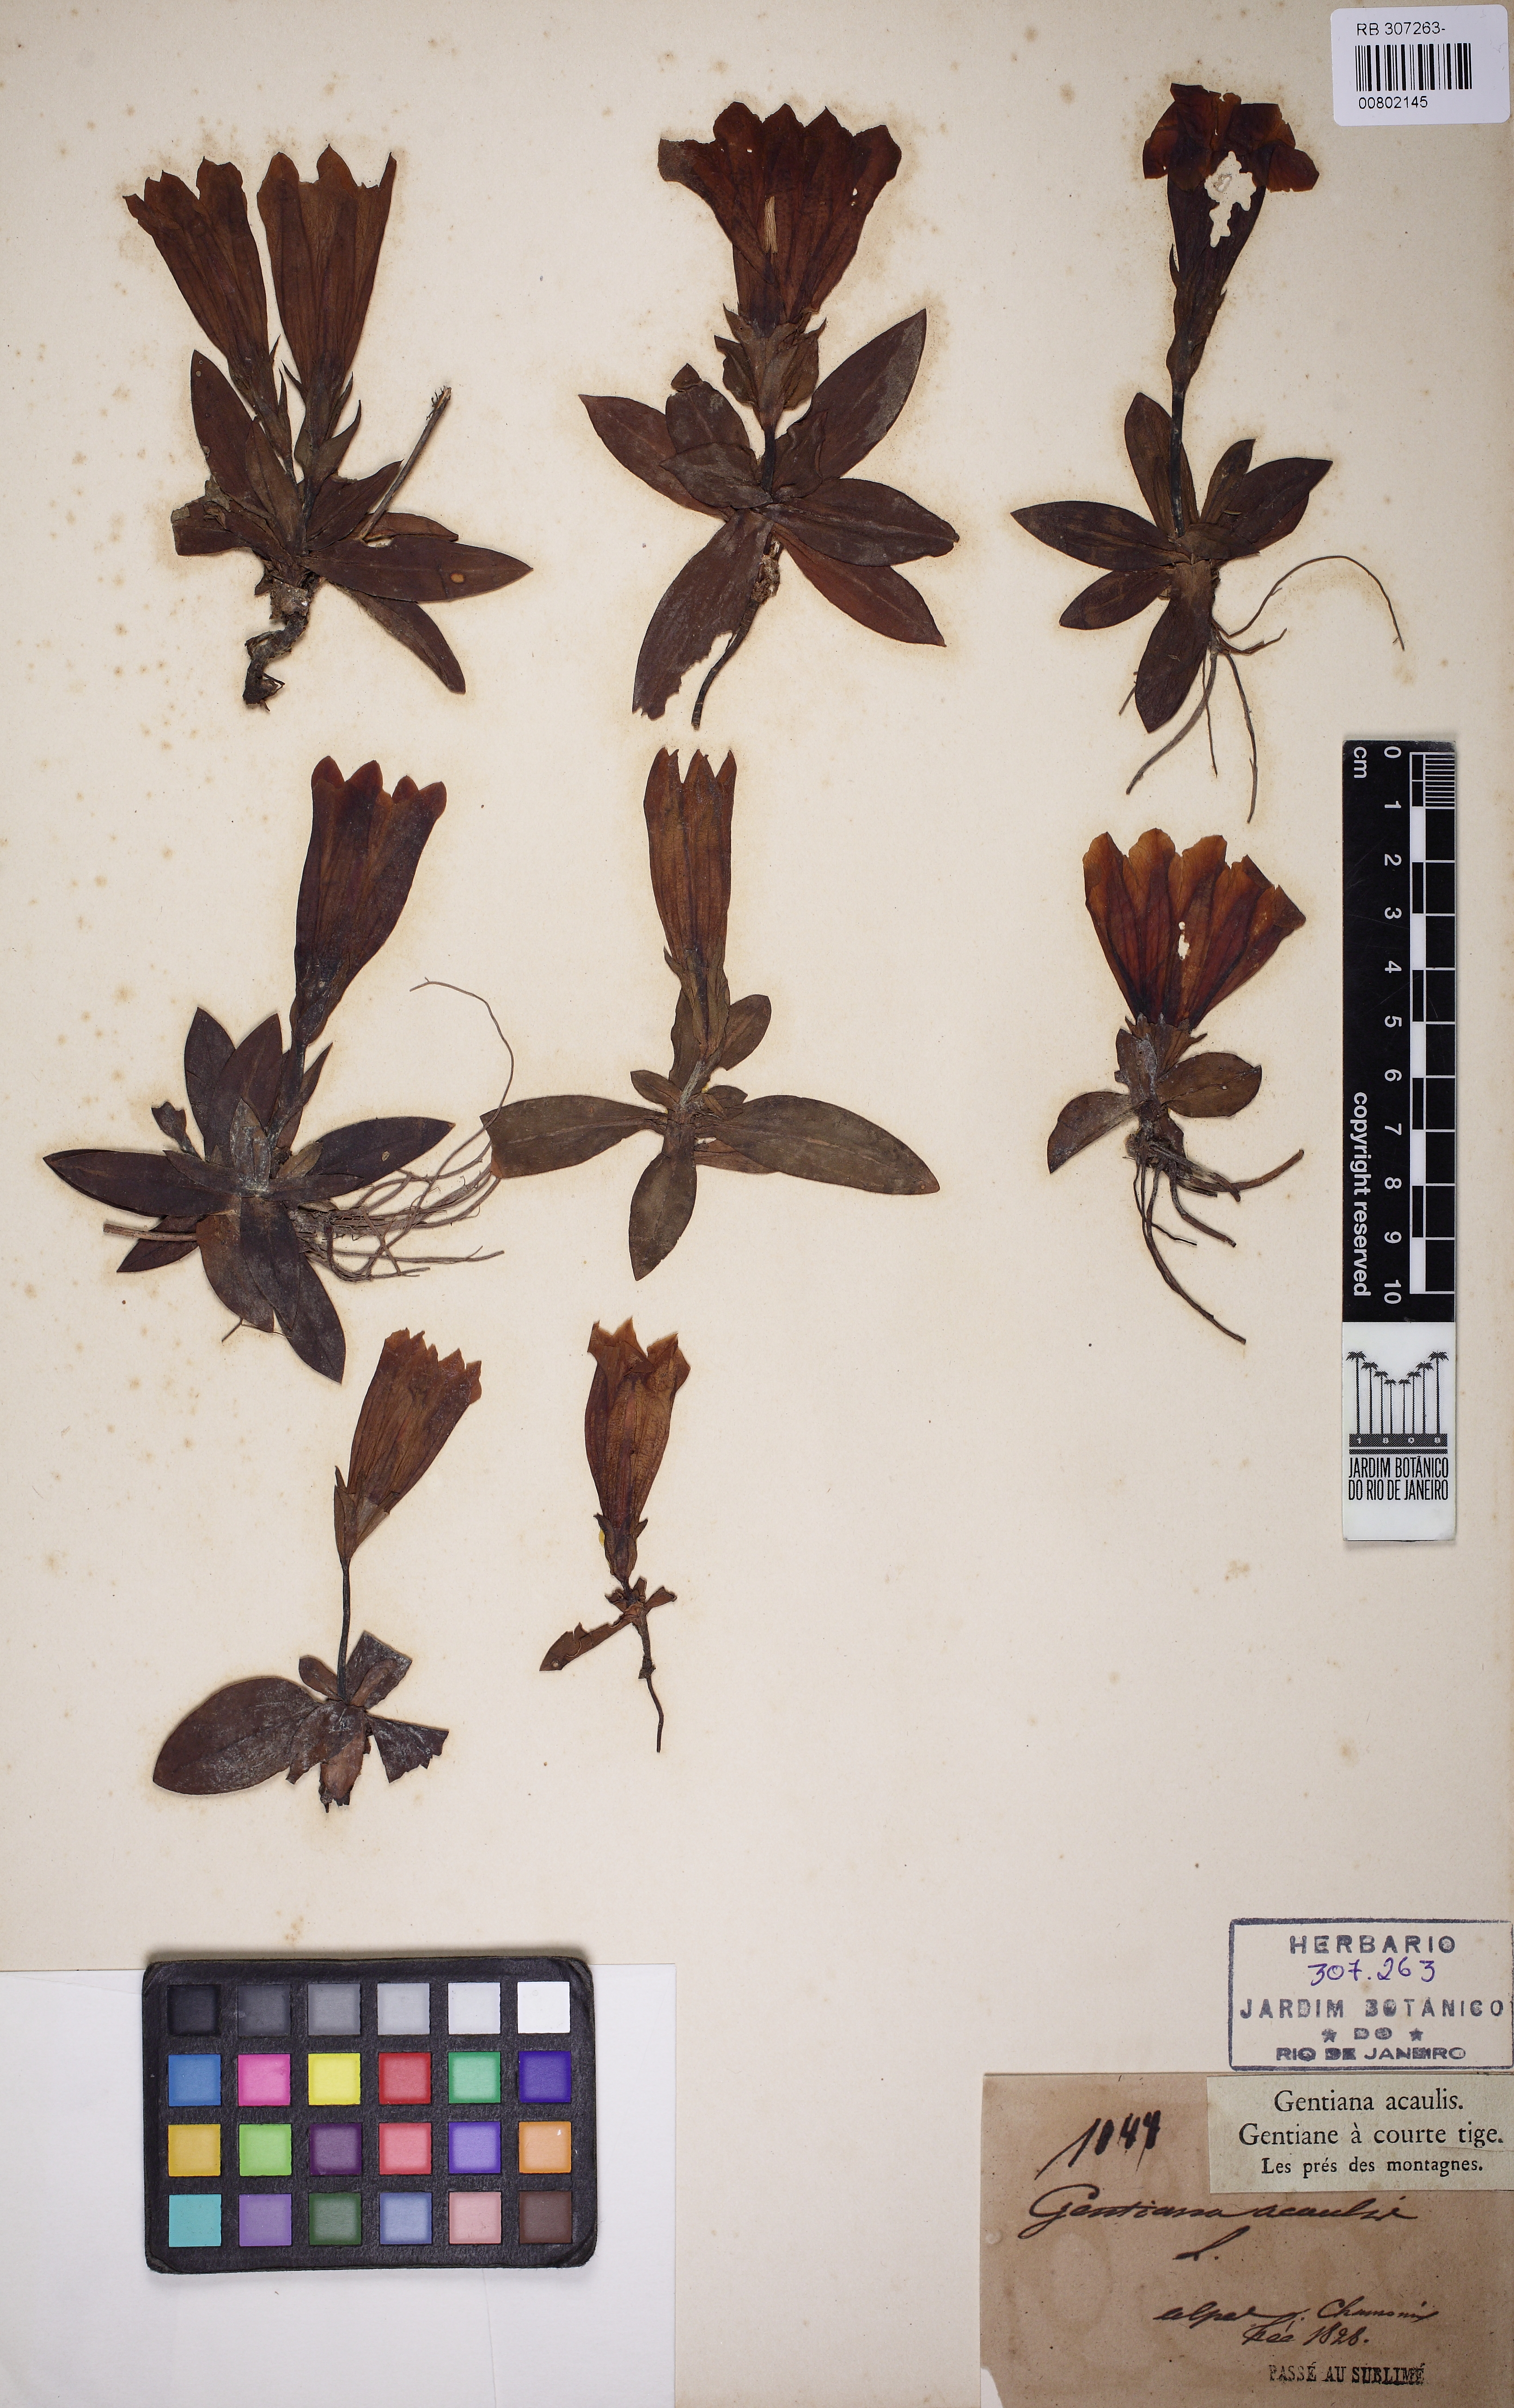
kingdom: Plantae
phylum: Tracheophyta
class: Magnoliopsida
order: Gentianales
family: Gentianaceae
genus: Gentiana
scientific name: Gentiana acaulis
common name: Trumpet gentian
